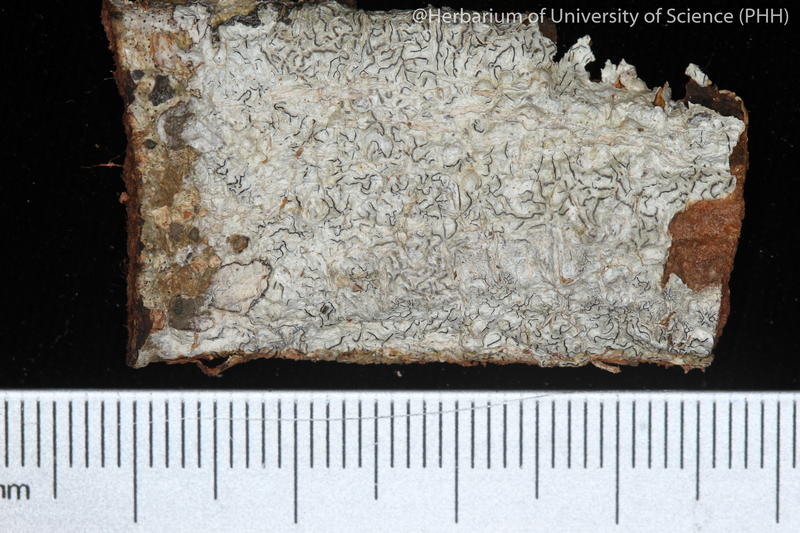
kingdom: Fungi
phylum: Ascomycota
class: Lecanoromycetes
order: Ostropales
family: Graphidaceae
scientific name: Graphidaceae
